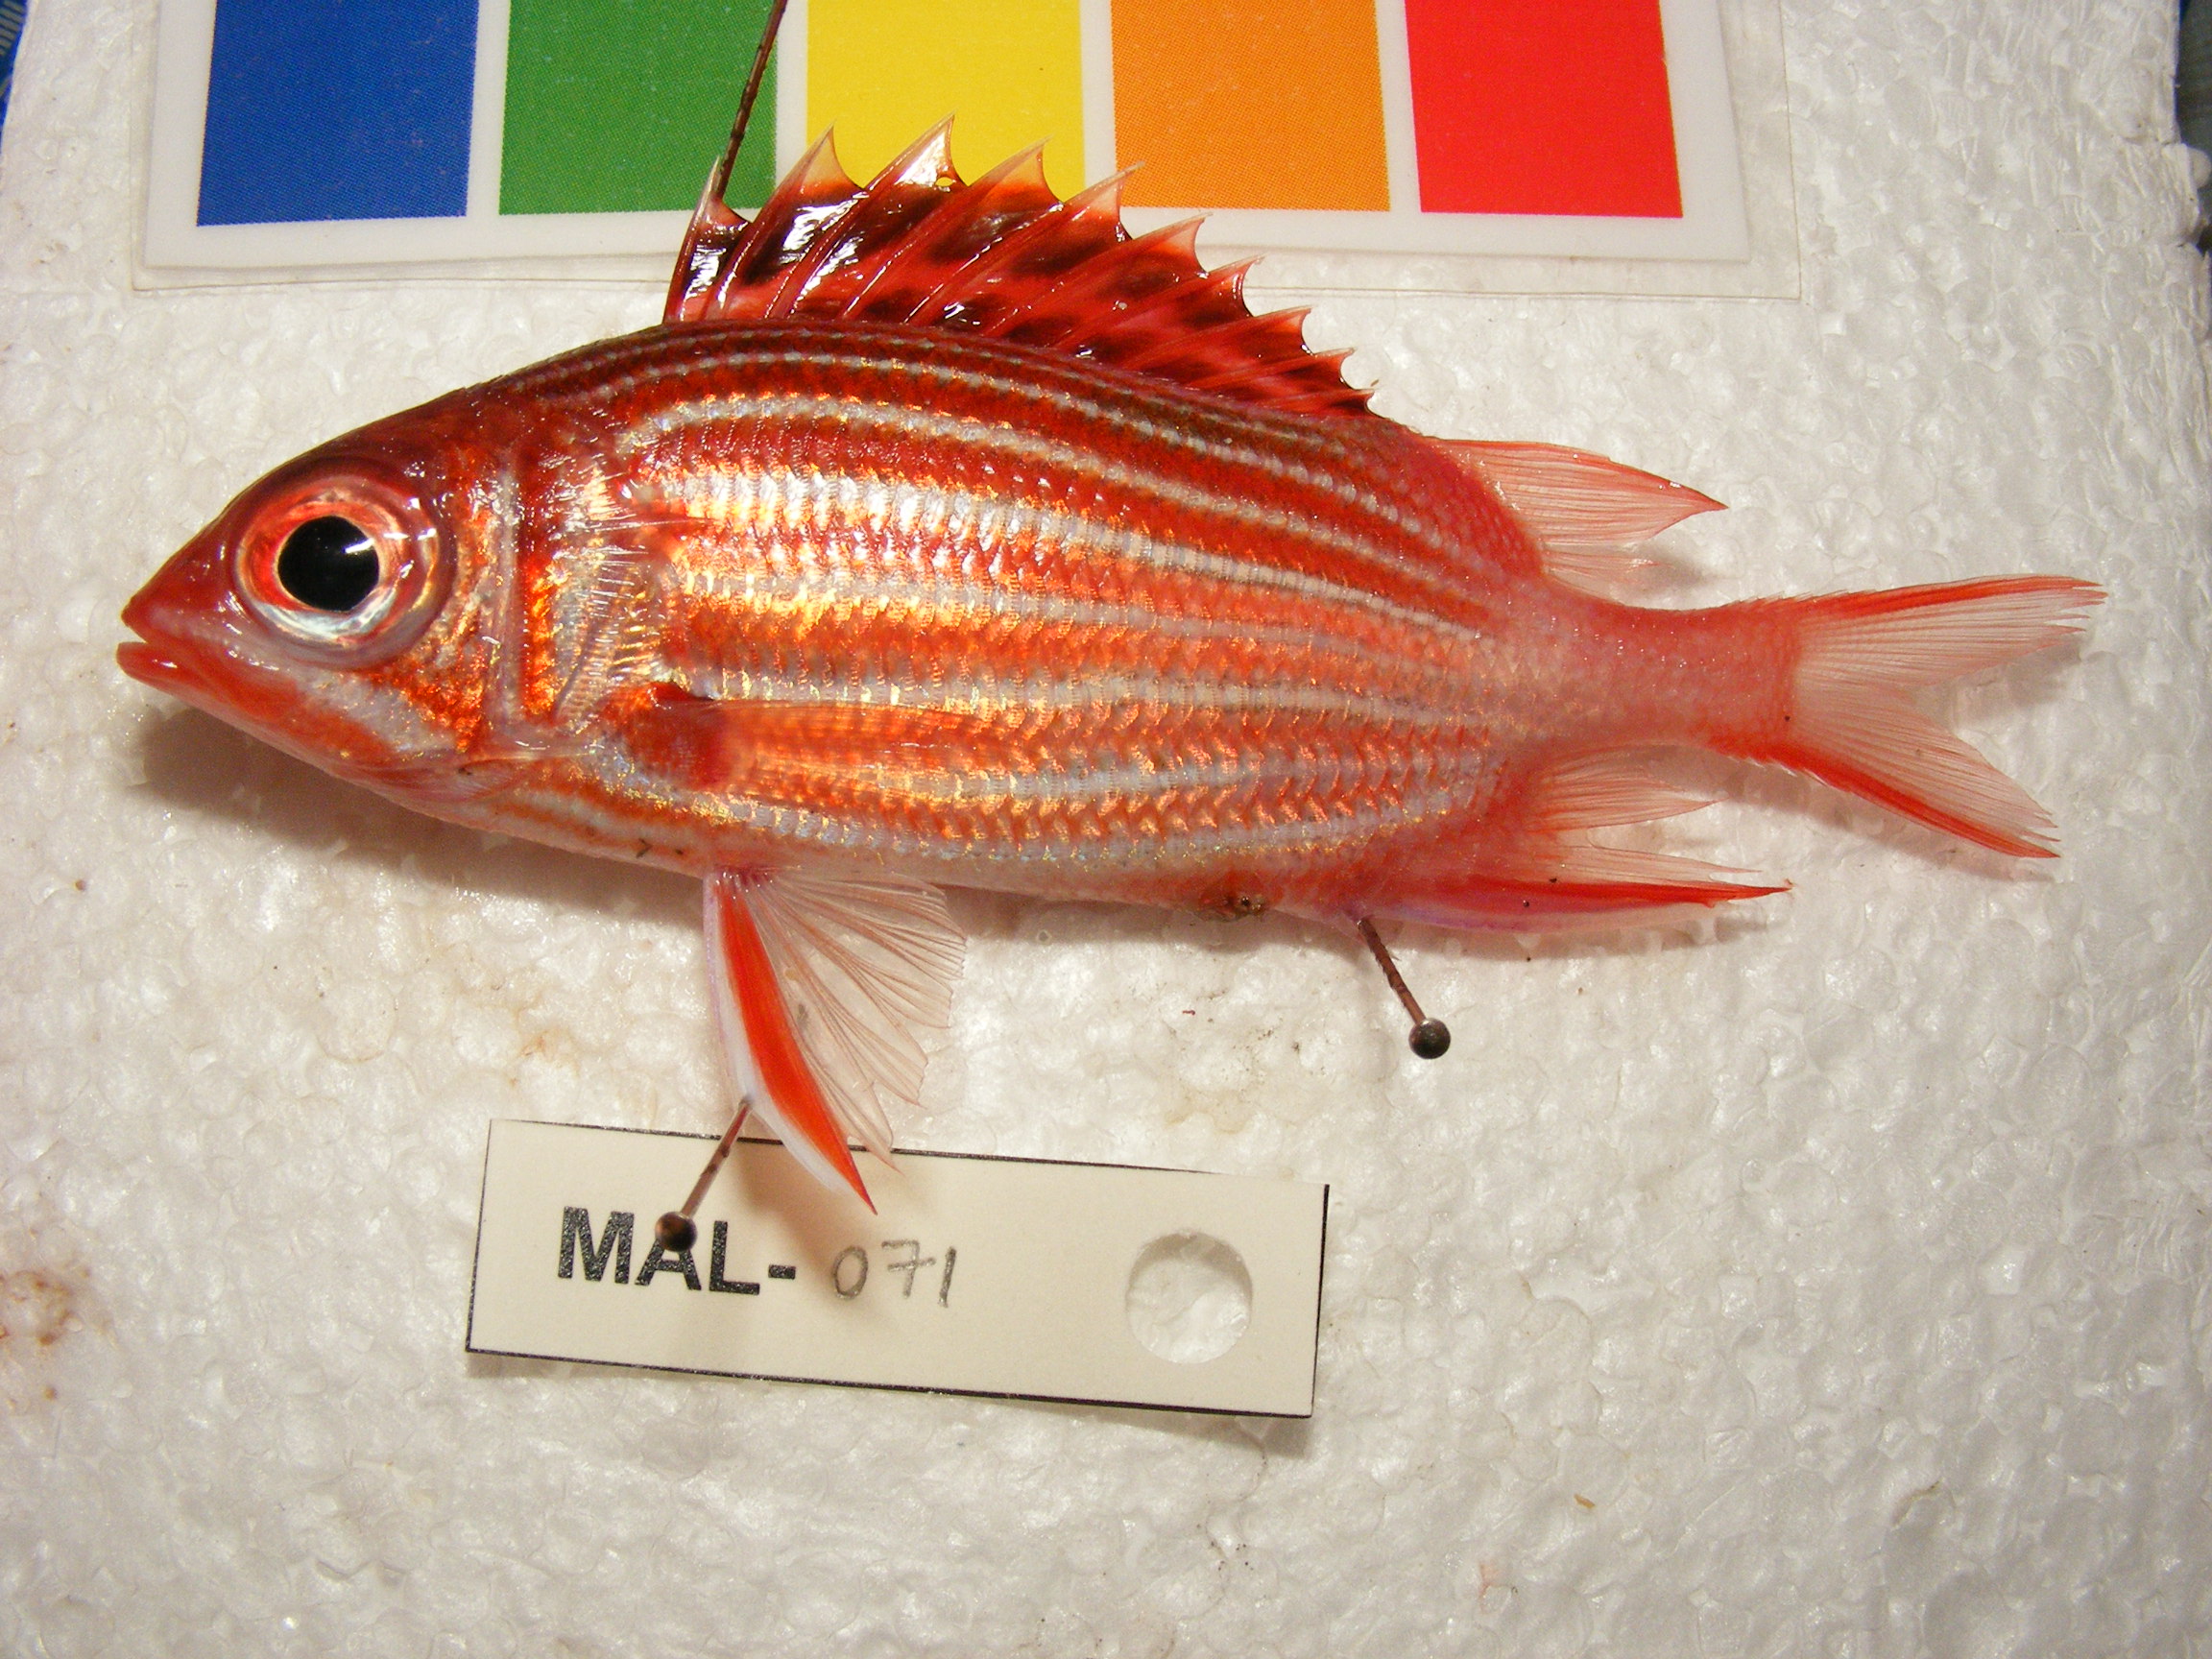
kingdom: Animalia
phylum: Chordata
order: Beryciformes
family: Holocentridae
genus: Sargocentron
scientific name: Sargocentron diadema
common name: Crown squirrelfish
